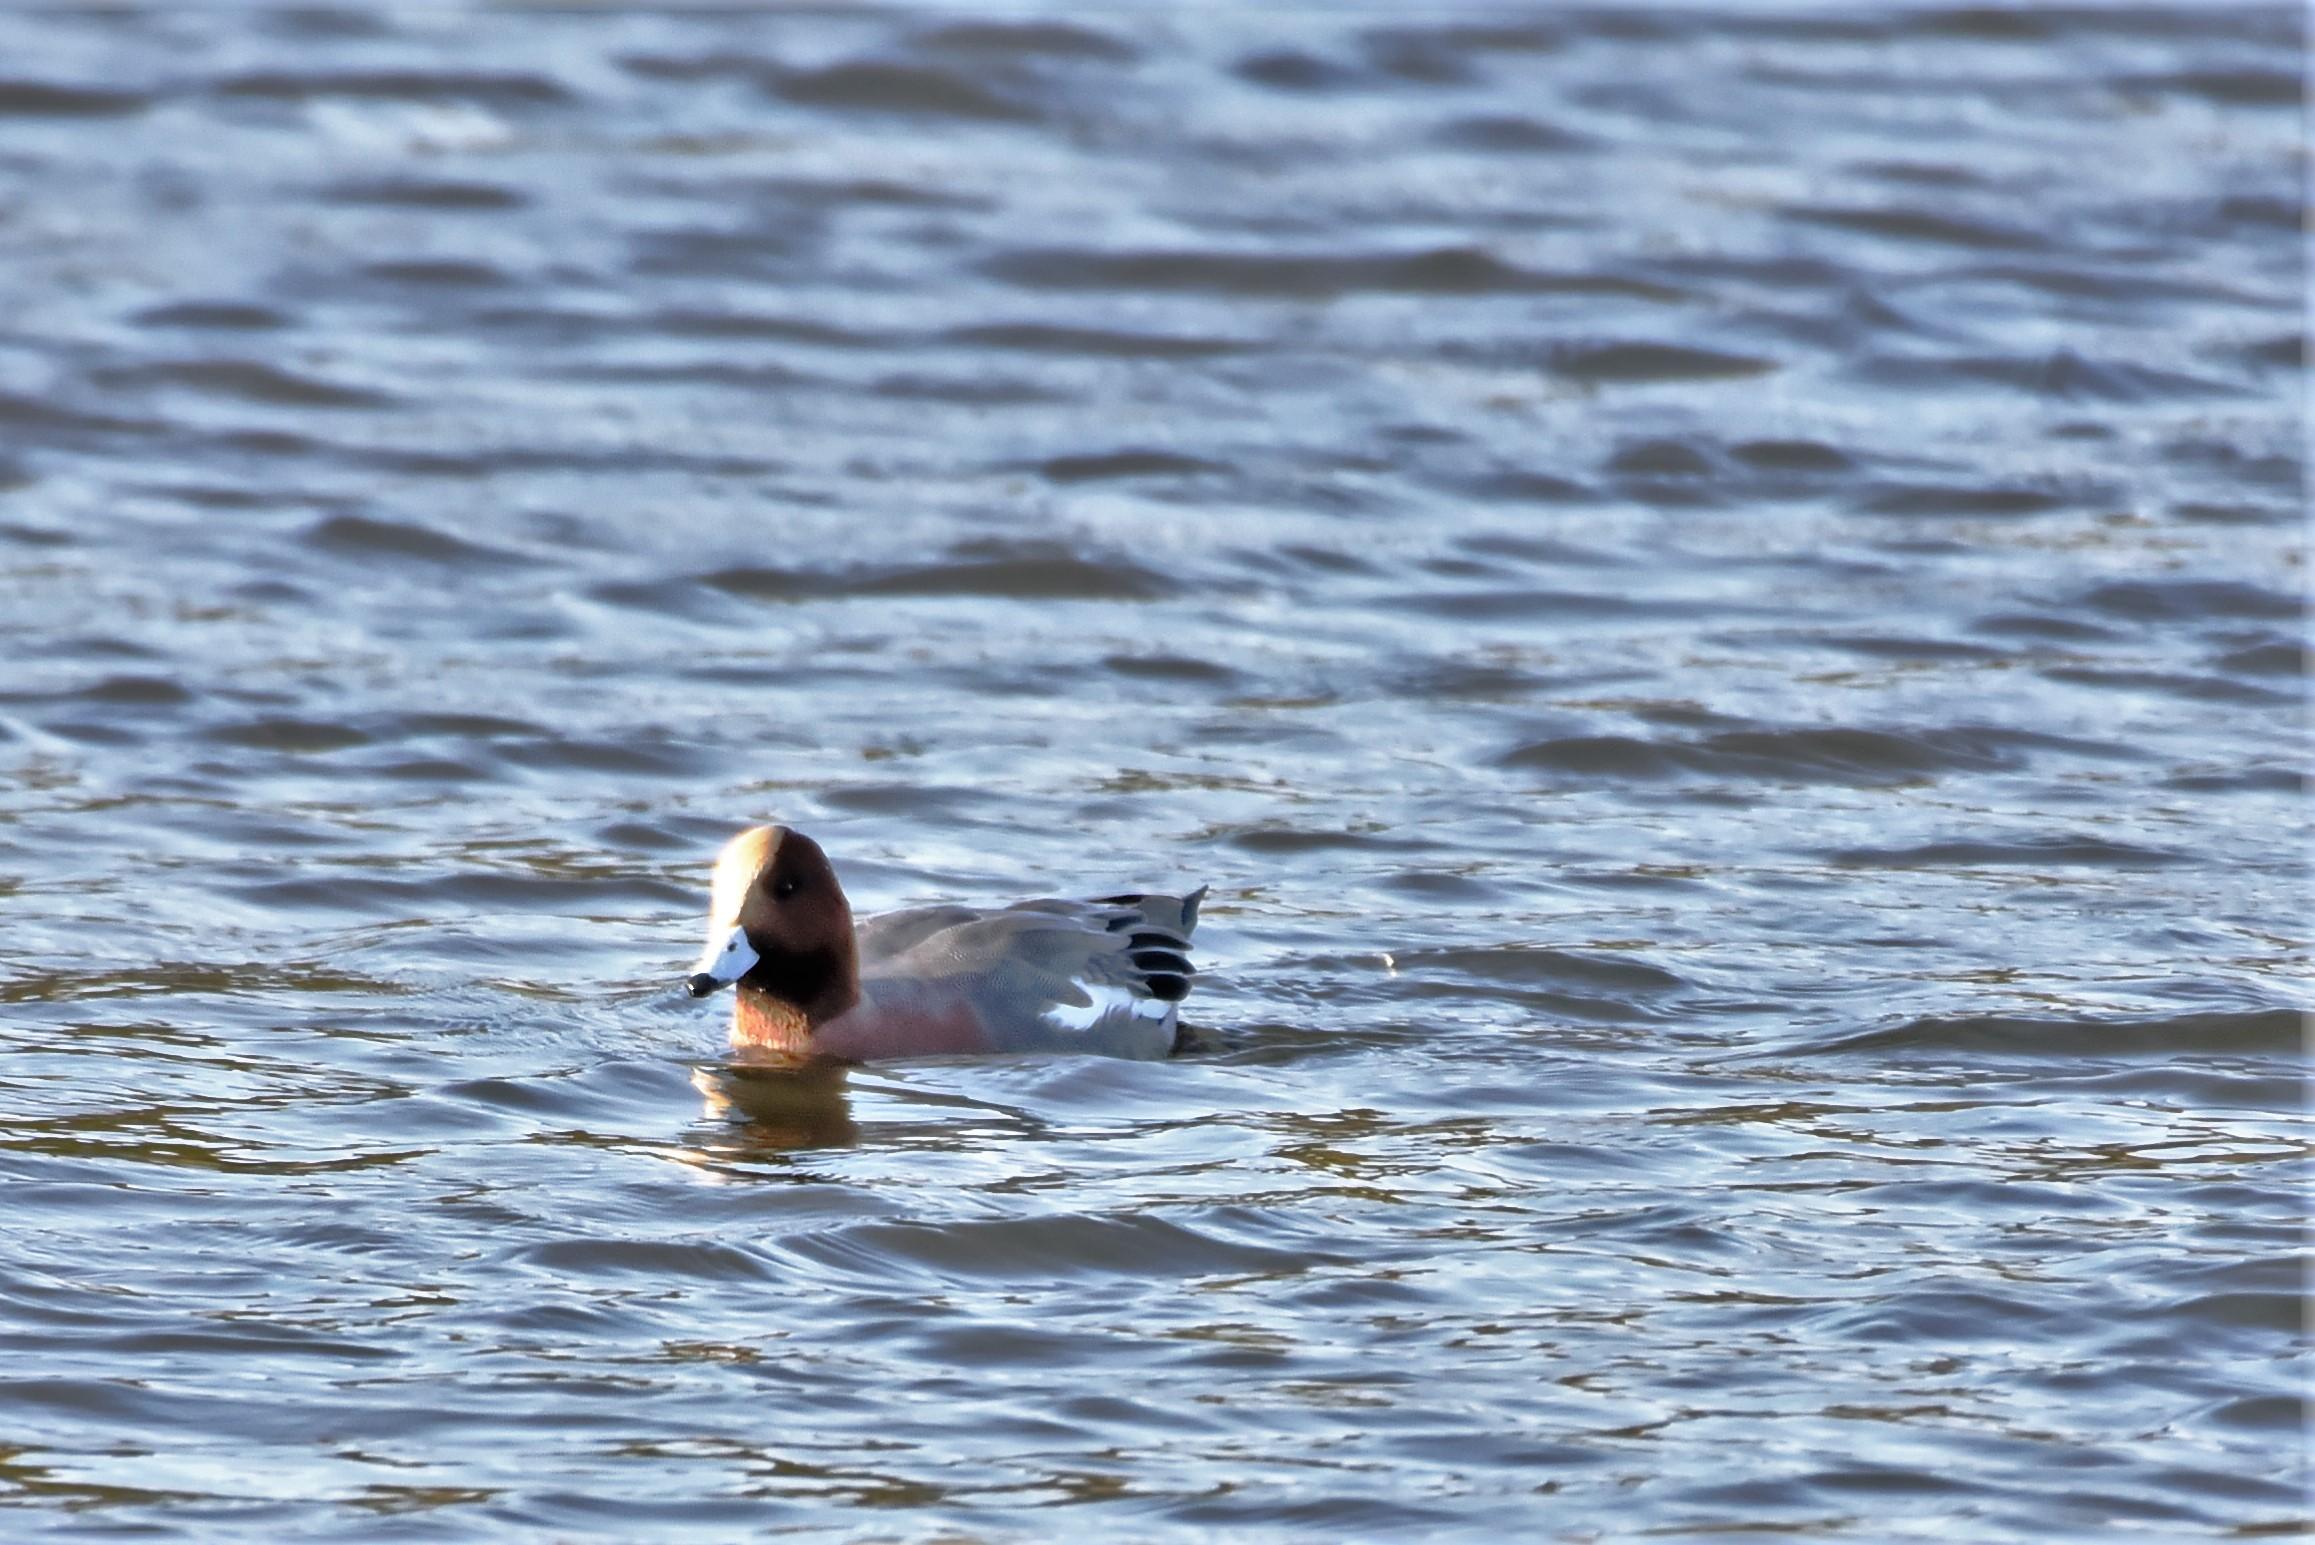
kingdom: Animalia
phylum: Chordata
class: Aves
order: Anseriformes
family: Anatidae
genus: Mareca
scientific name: Mareca penelope
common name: Pibeand
